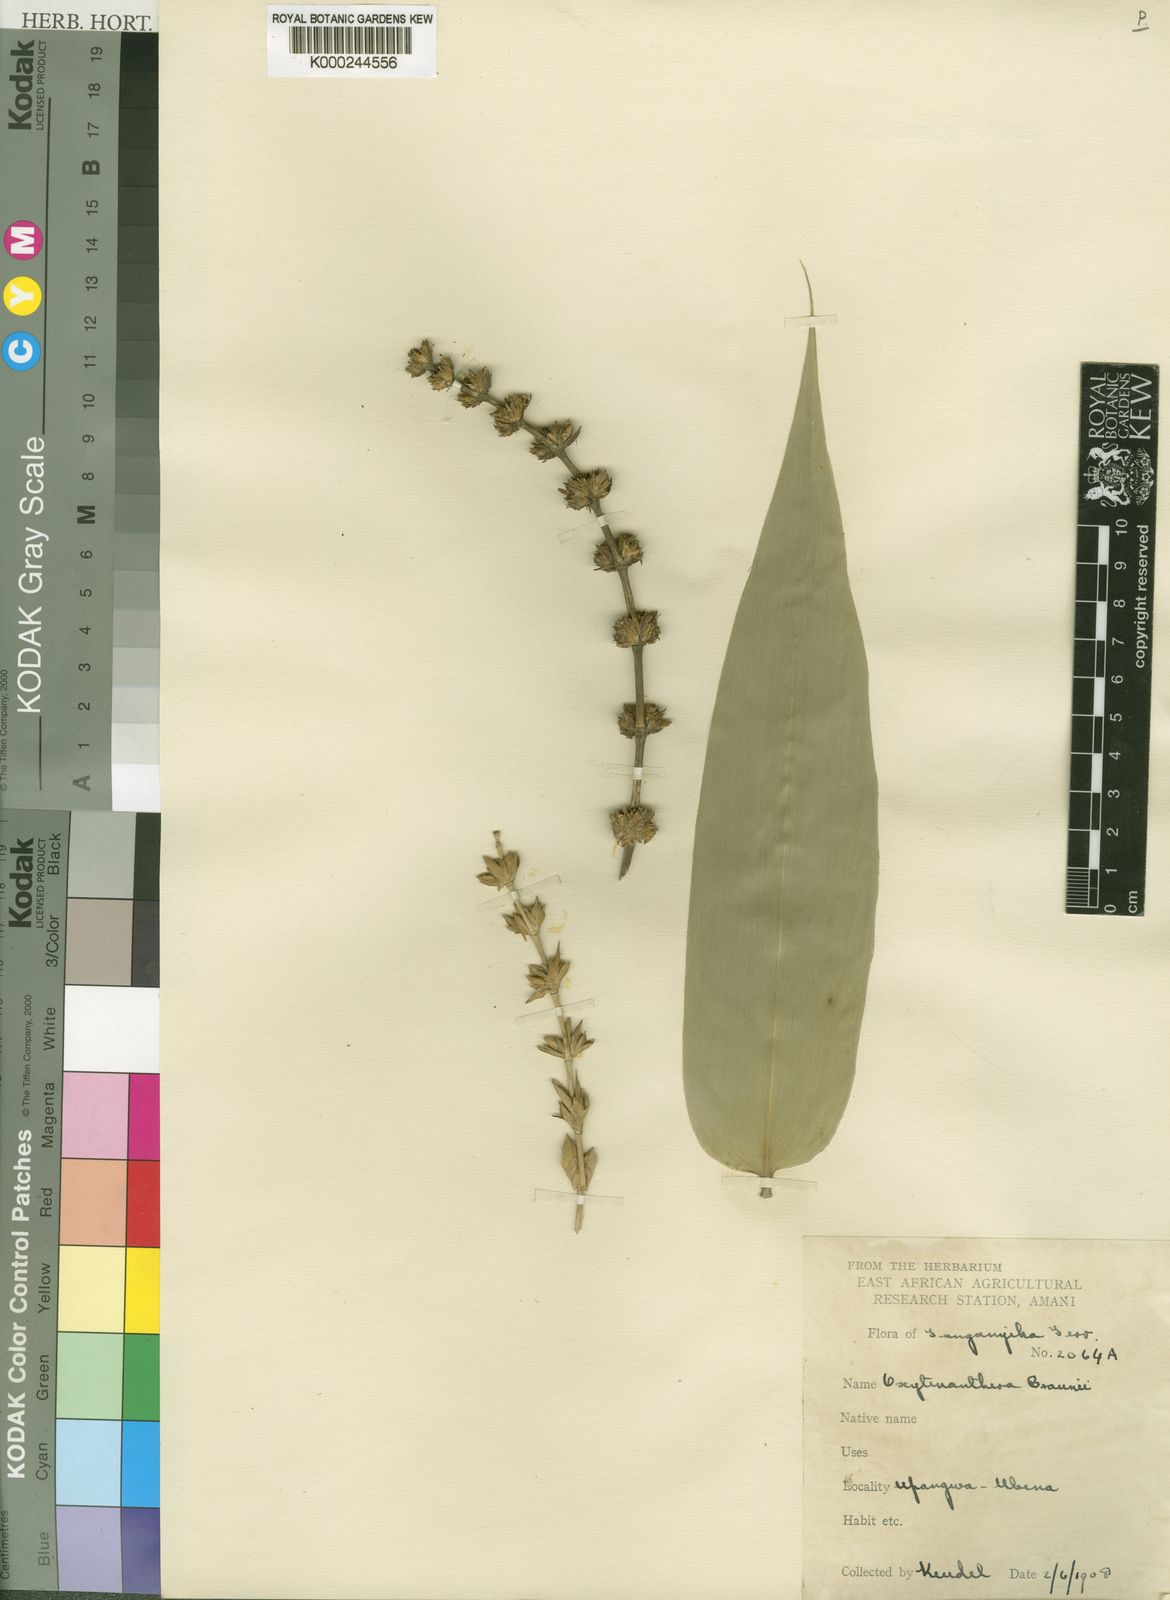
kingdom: Plantae
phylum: Tracheophyta
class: Liliopsida
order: Poales
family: Poaceae
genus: Oxytenanthera
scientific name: Oxytenanthera abyssinica
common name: Wine bamboo
